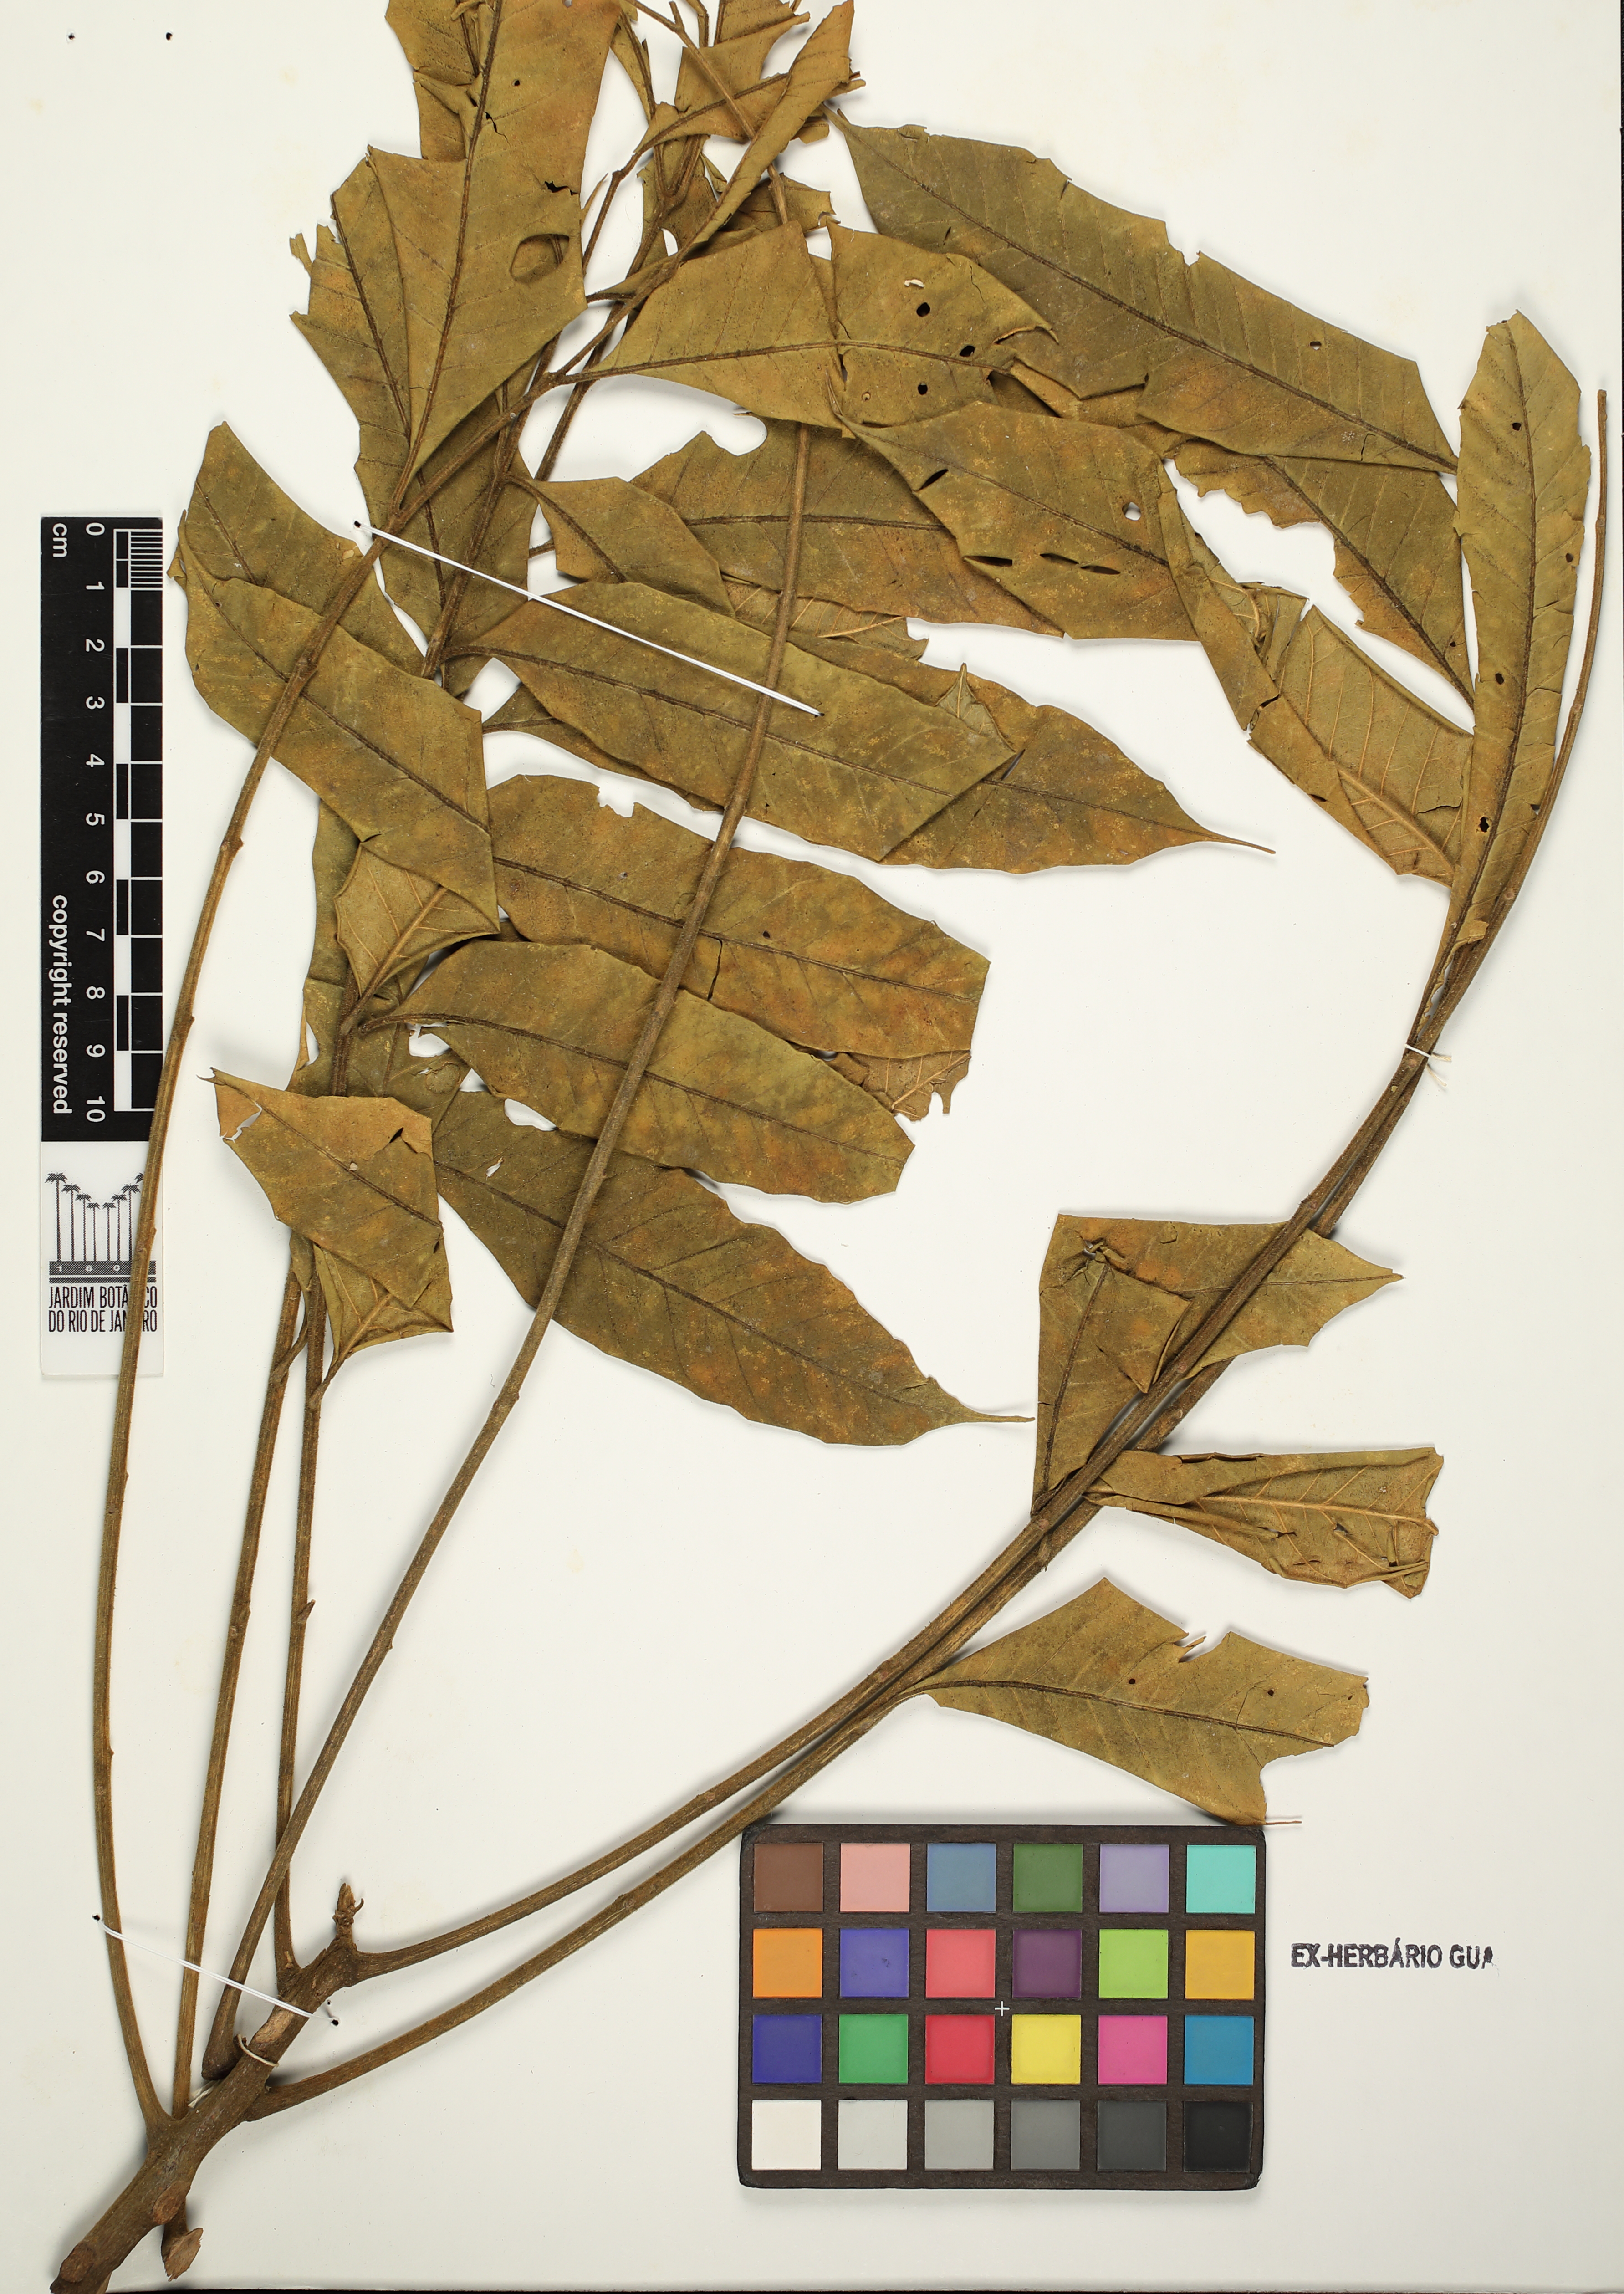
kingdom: Plantae
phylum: Tracheophyta
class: Magnoliopsida
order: Sapindales
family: Meliaceae
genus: Cabralea
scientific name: Cabralea canjerana
